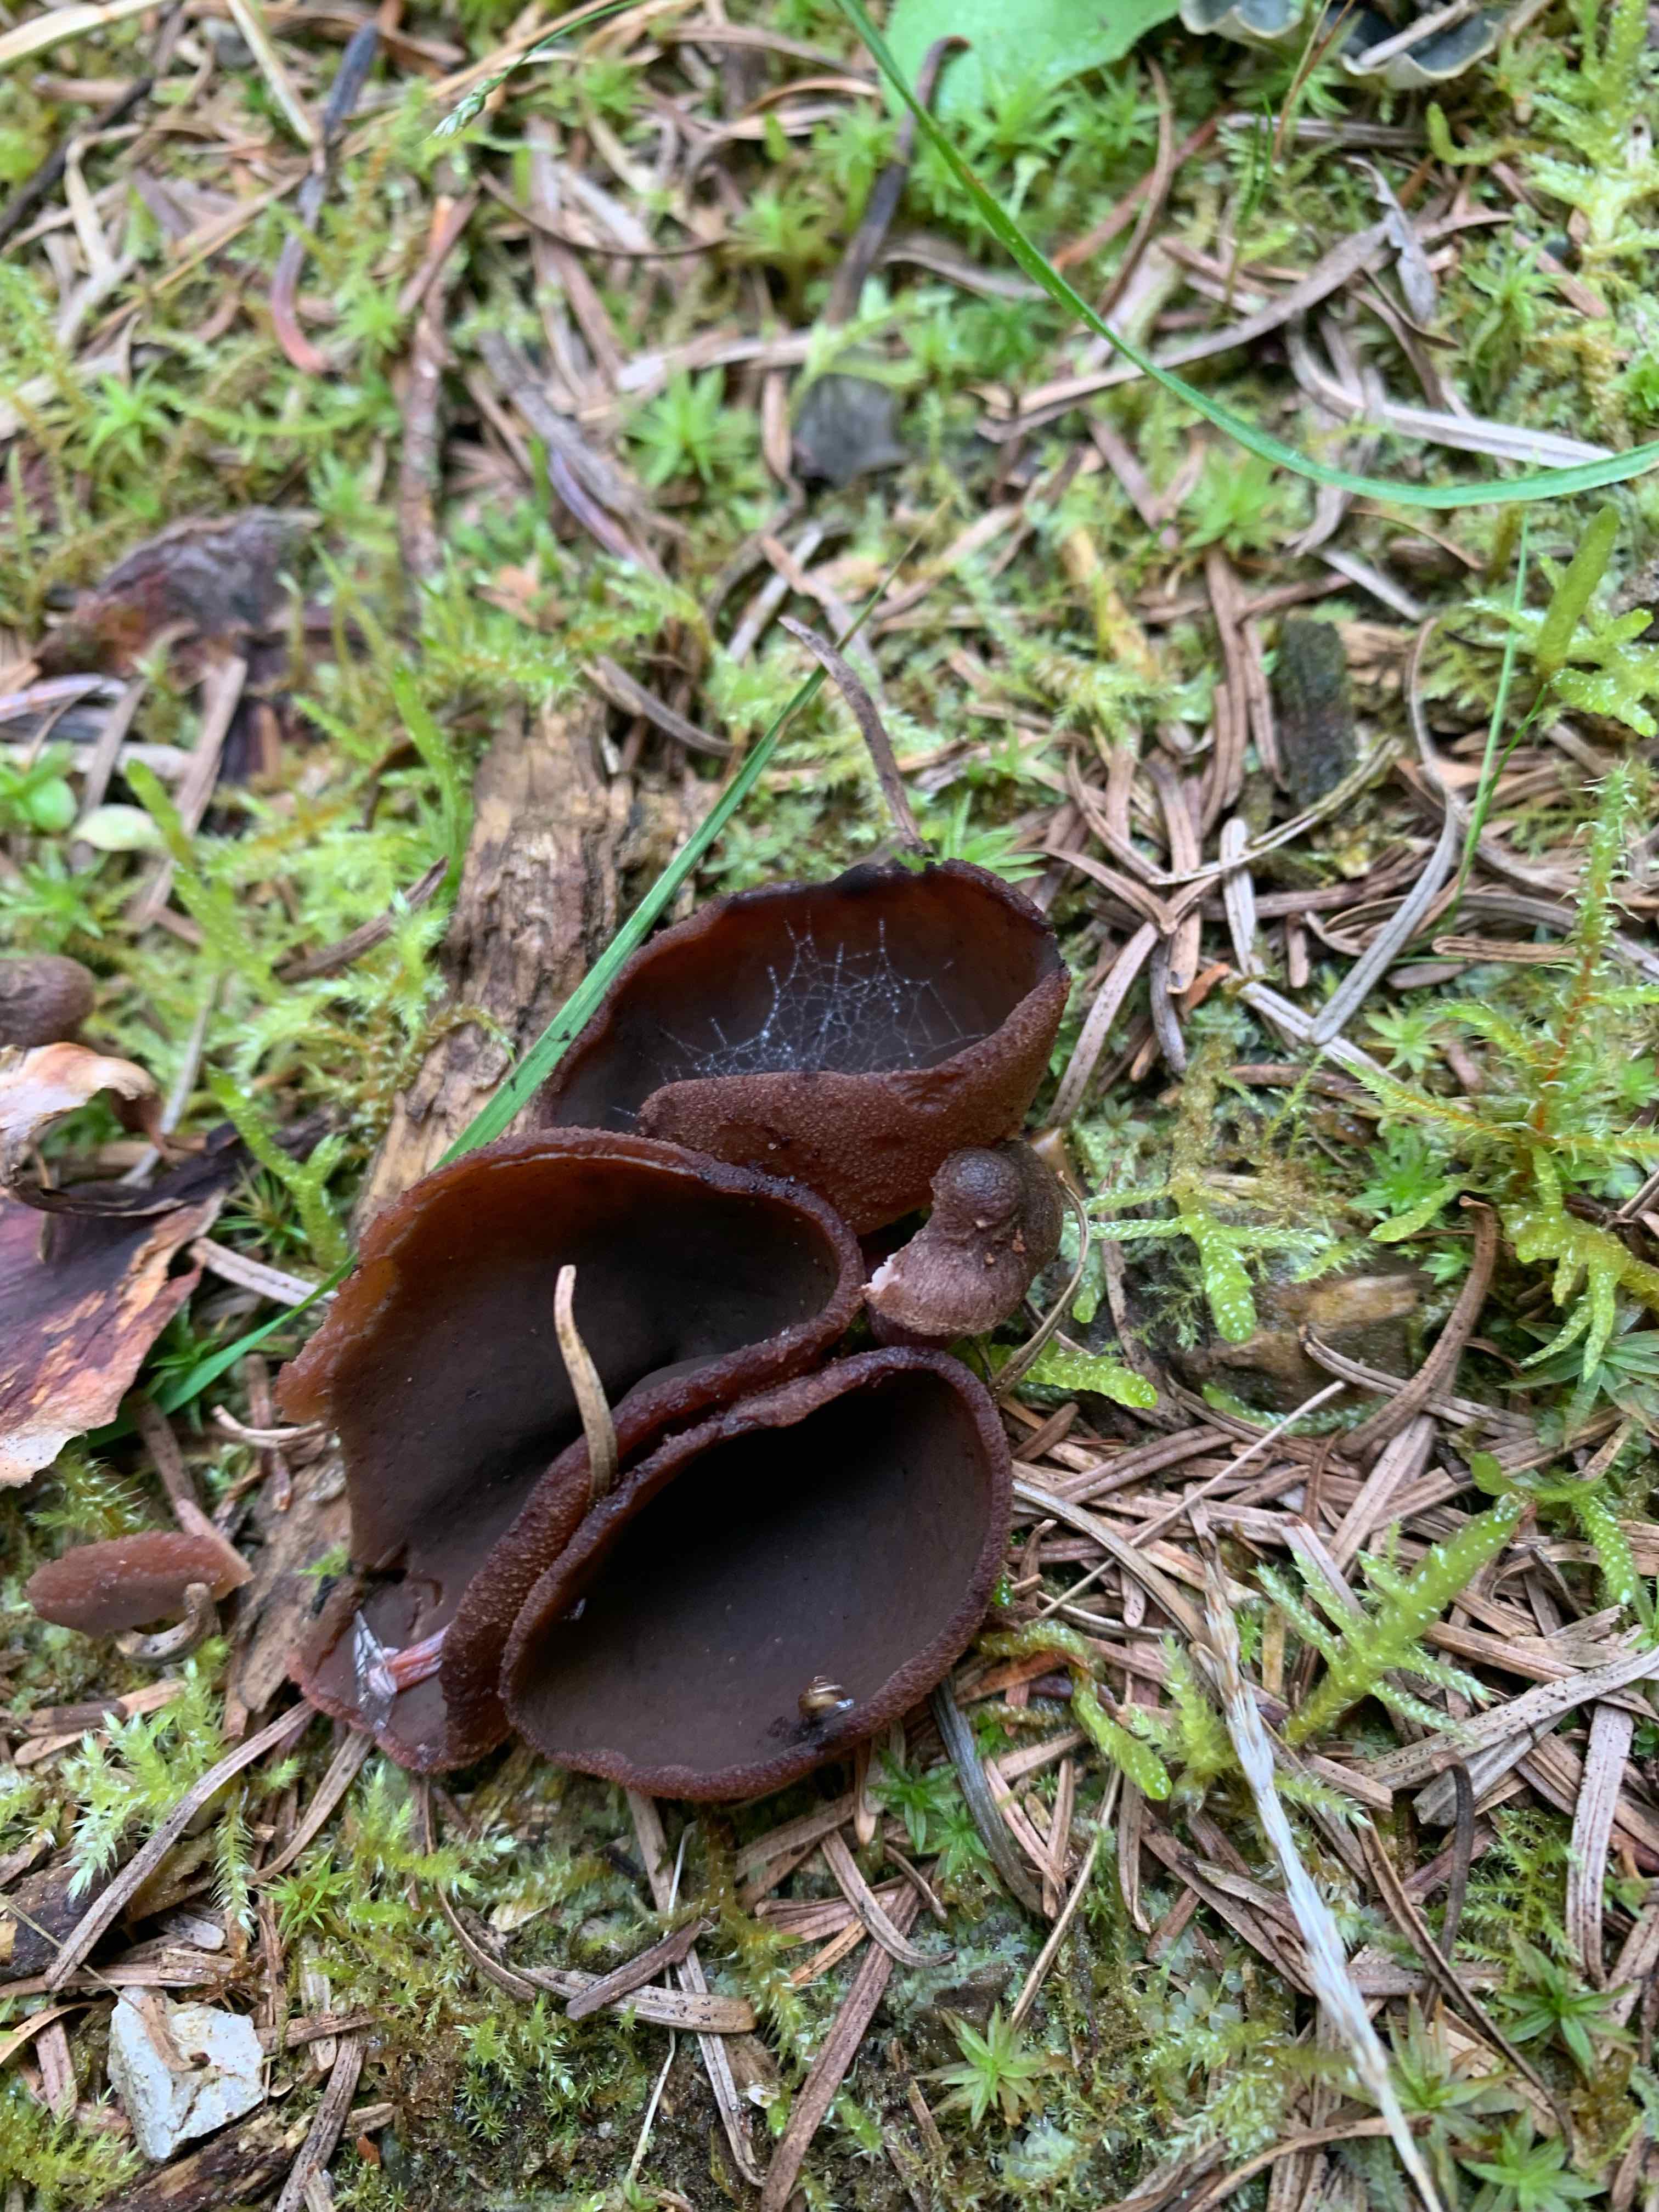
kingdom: Fungi
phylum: Ascomycota
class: Pezizomycetes
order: Pezizales
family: Pezizaceae
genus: Legaliana
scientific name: Legaliana badia
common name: leverbrun bægersvamp
